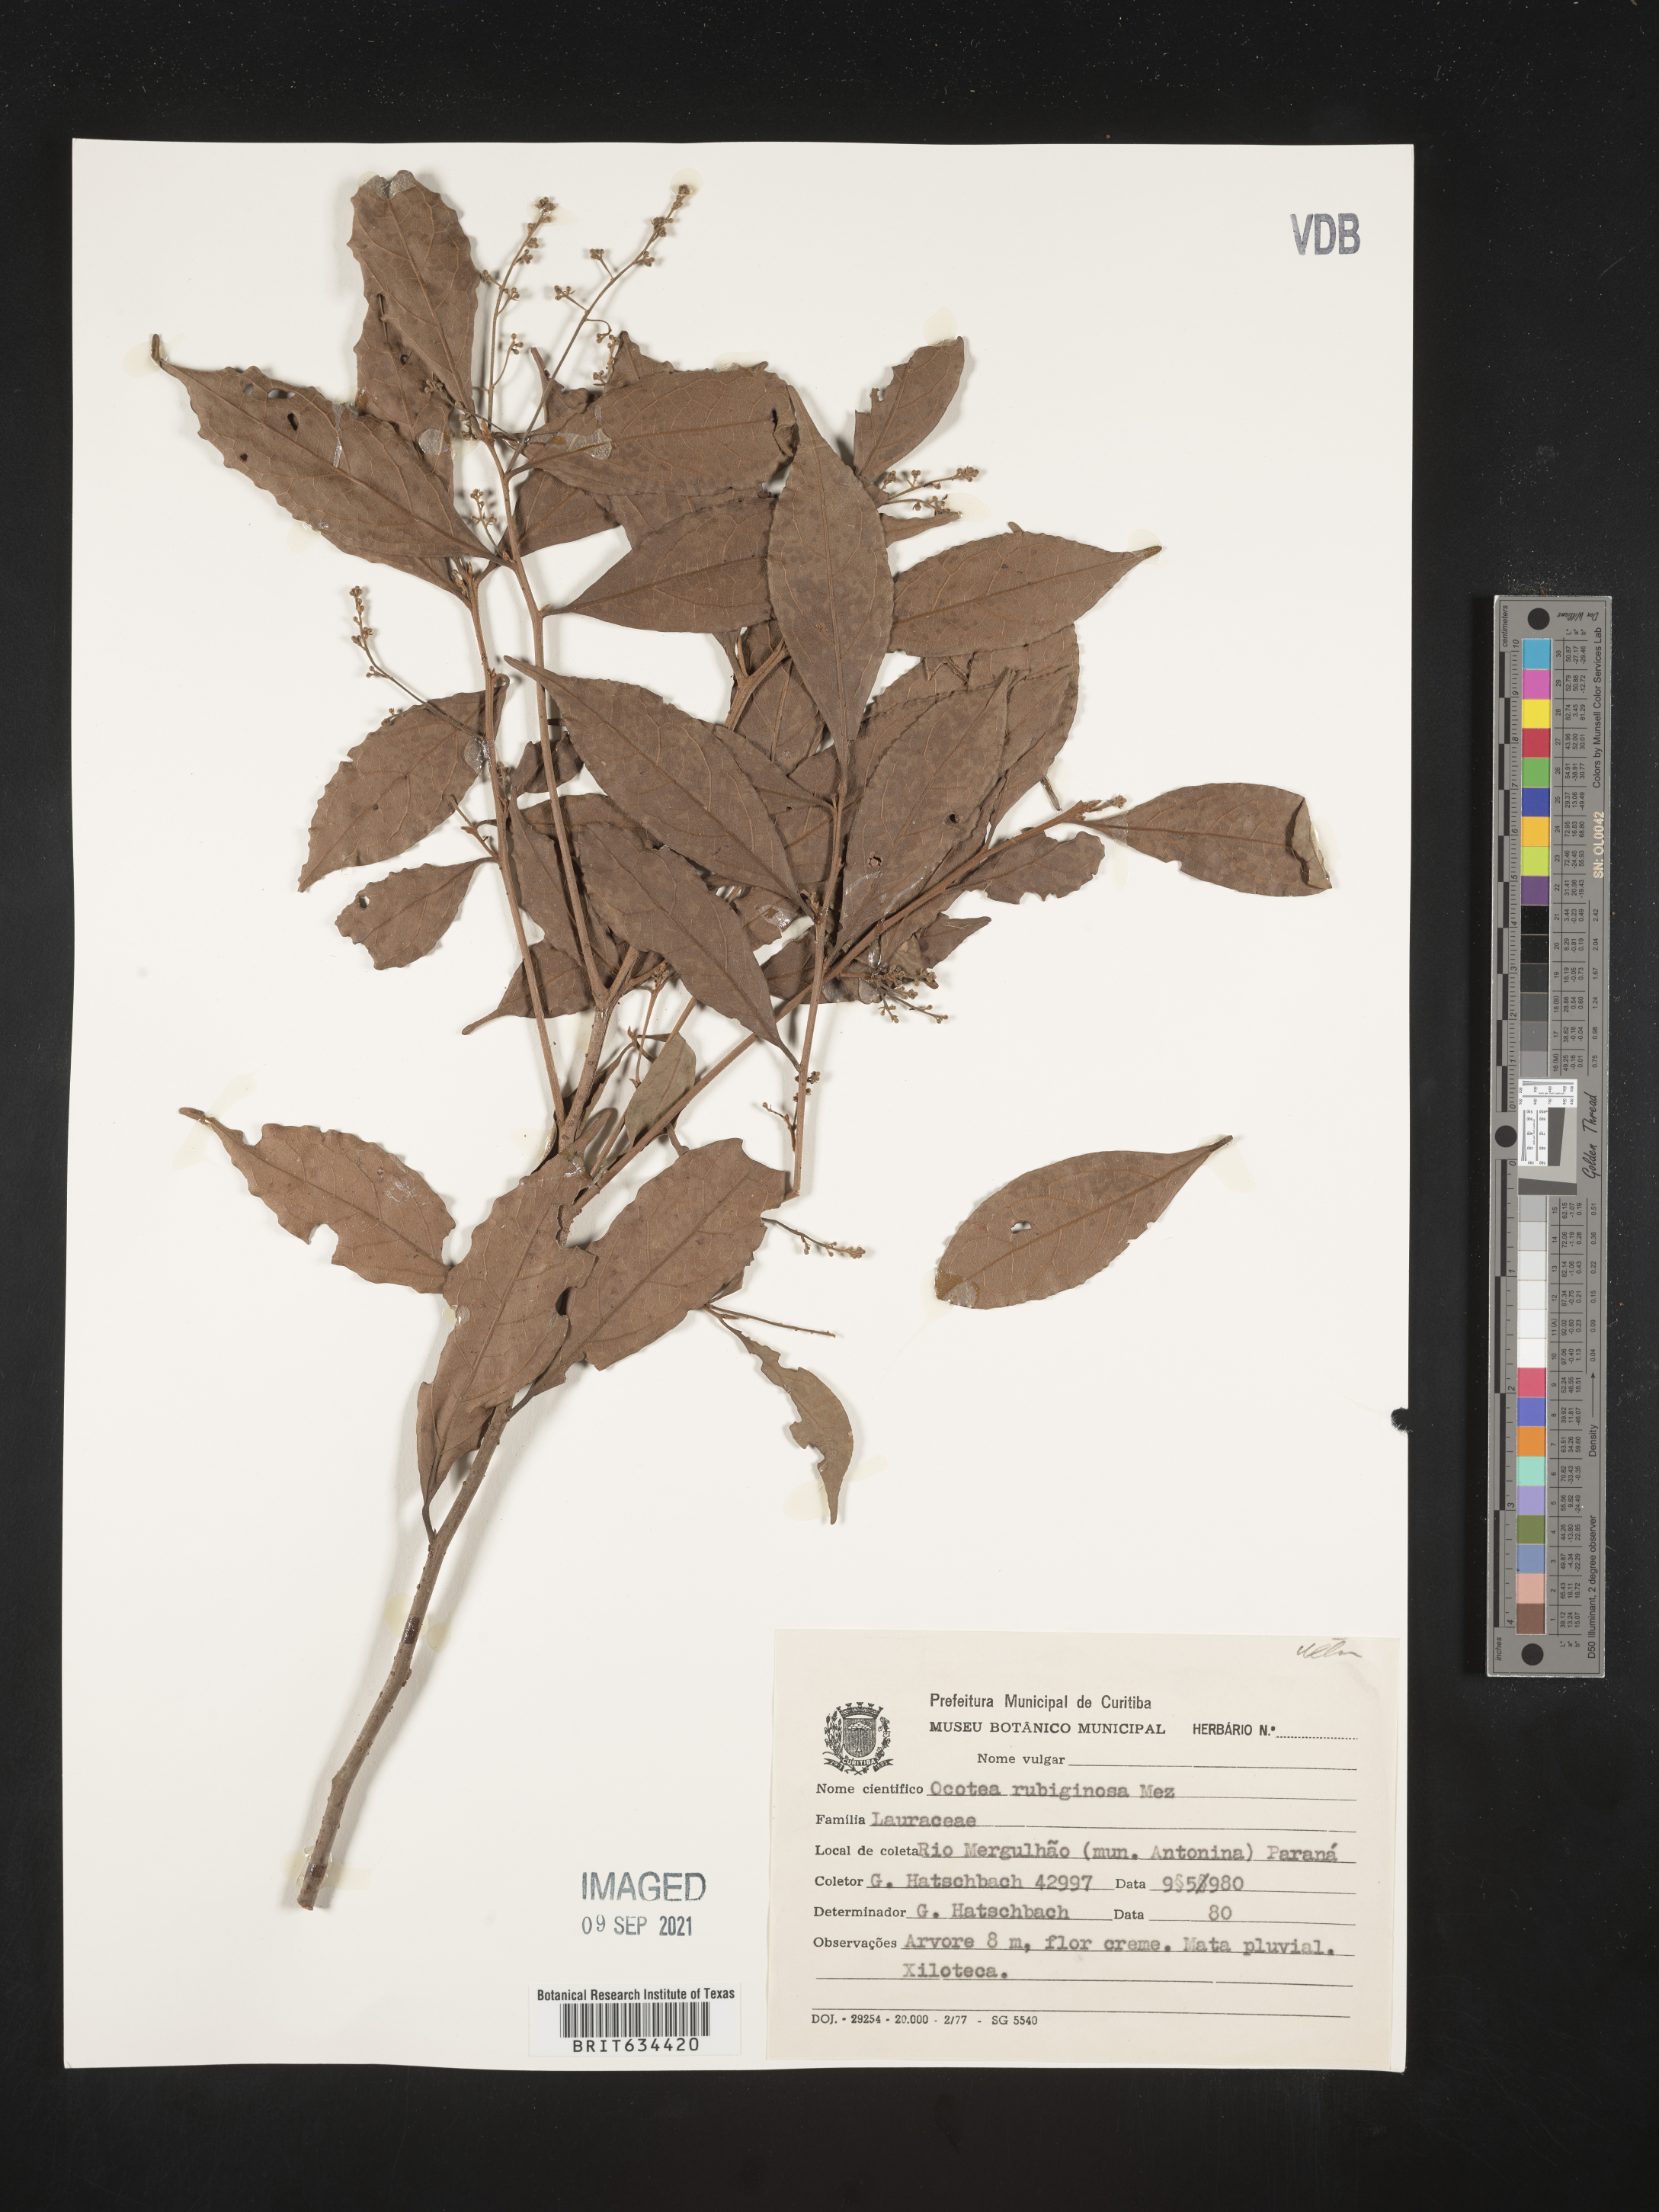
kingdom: Plantae
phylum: Tracheophyta
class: Magnoliopsida
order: Laurales
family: Lauraceae
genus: Ocotea
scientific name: Ocotea
